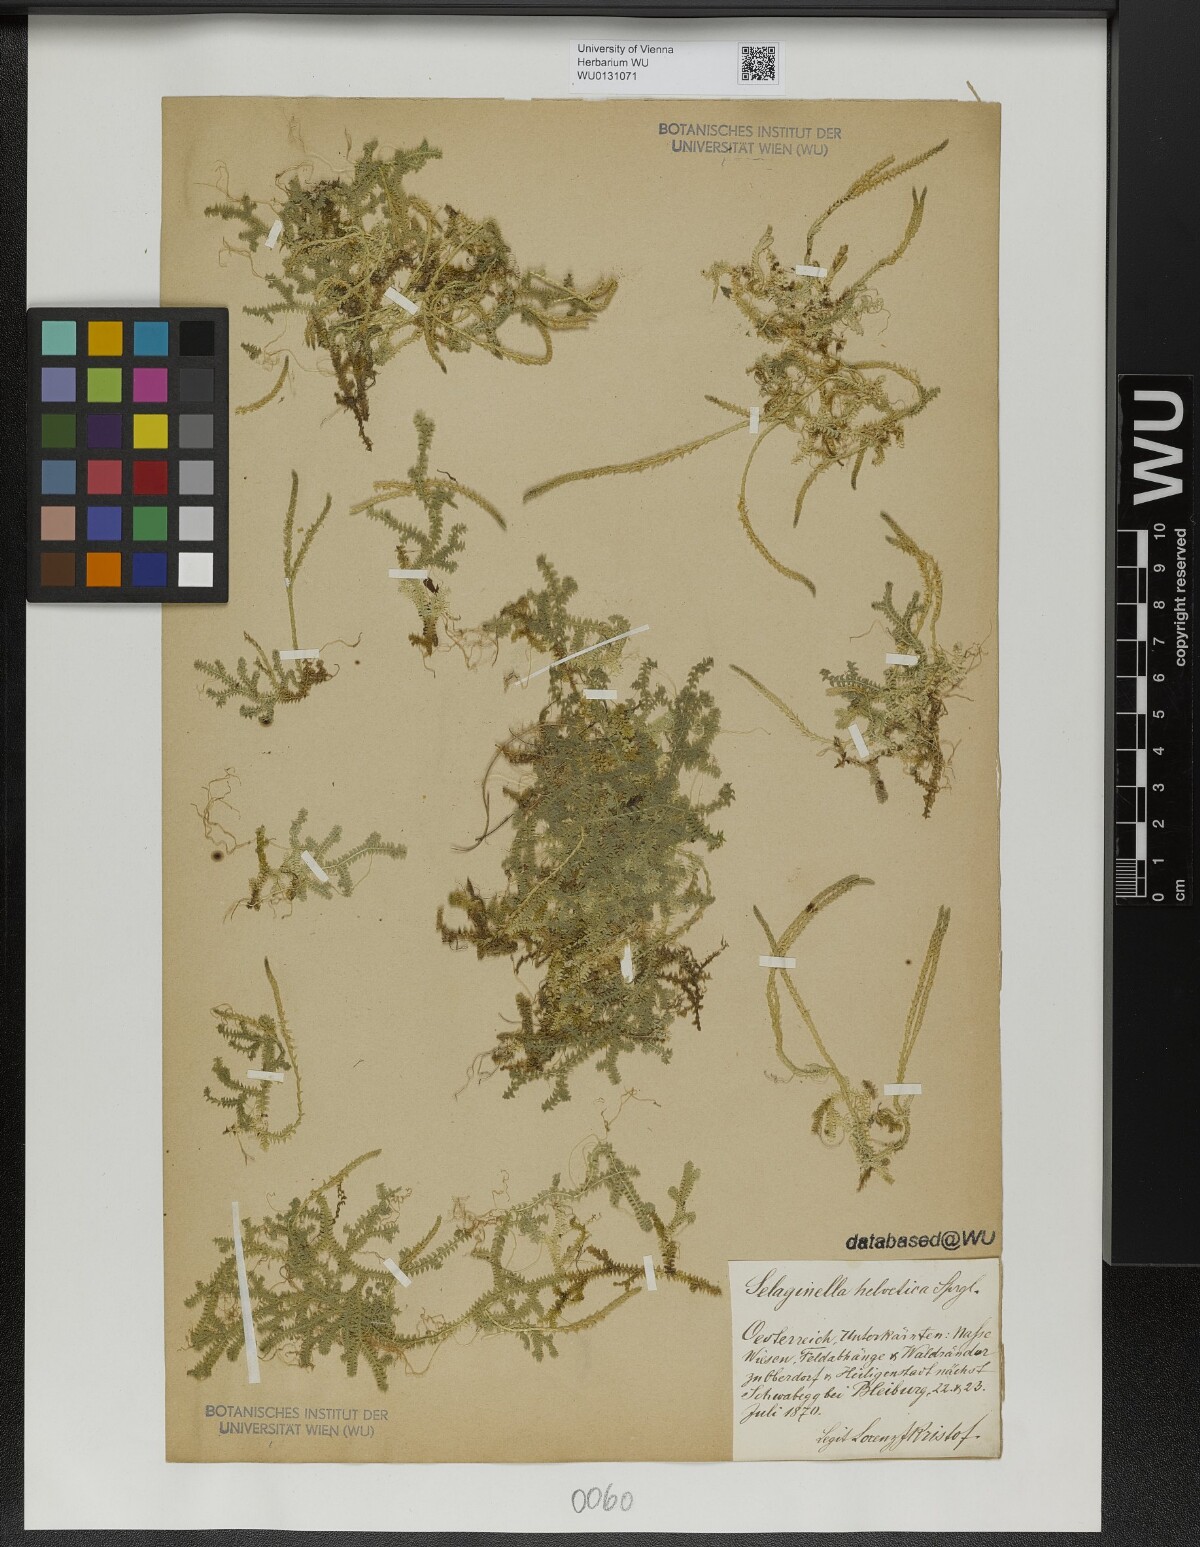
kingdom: Plantae
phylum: Tracheophyta
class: Lycopodiopsida
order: Selaginellales
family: Selaginellaceae
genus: Selaginella
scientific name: Selaginella helvetica
